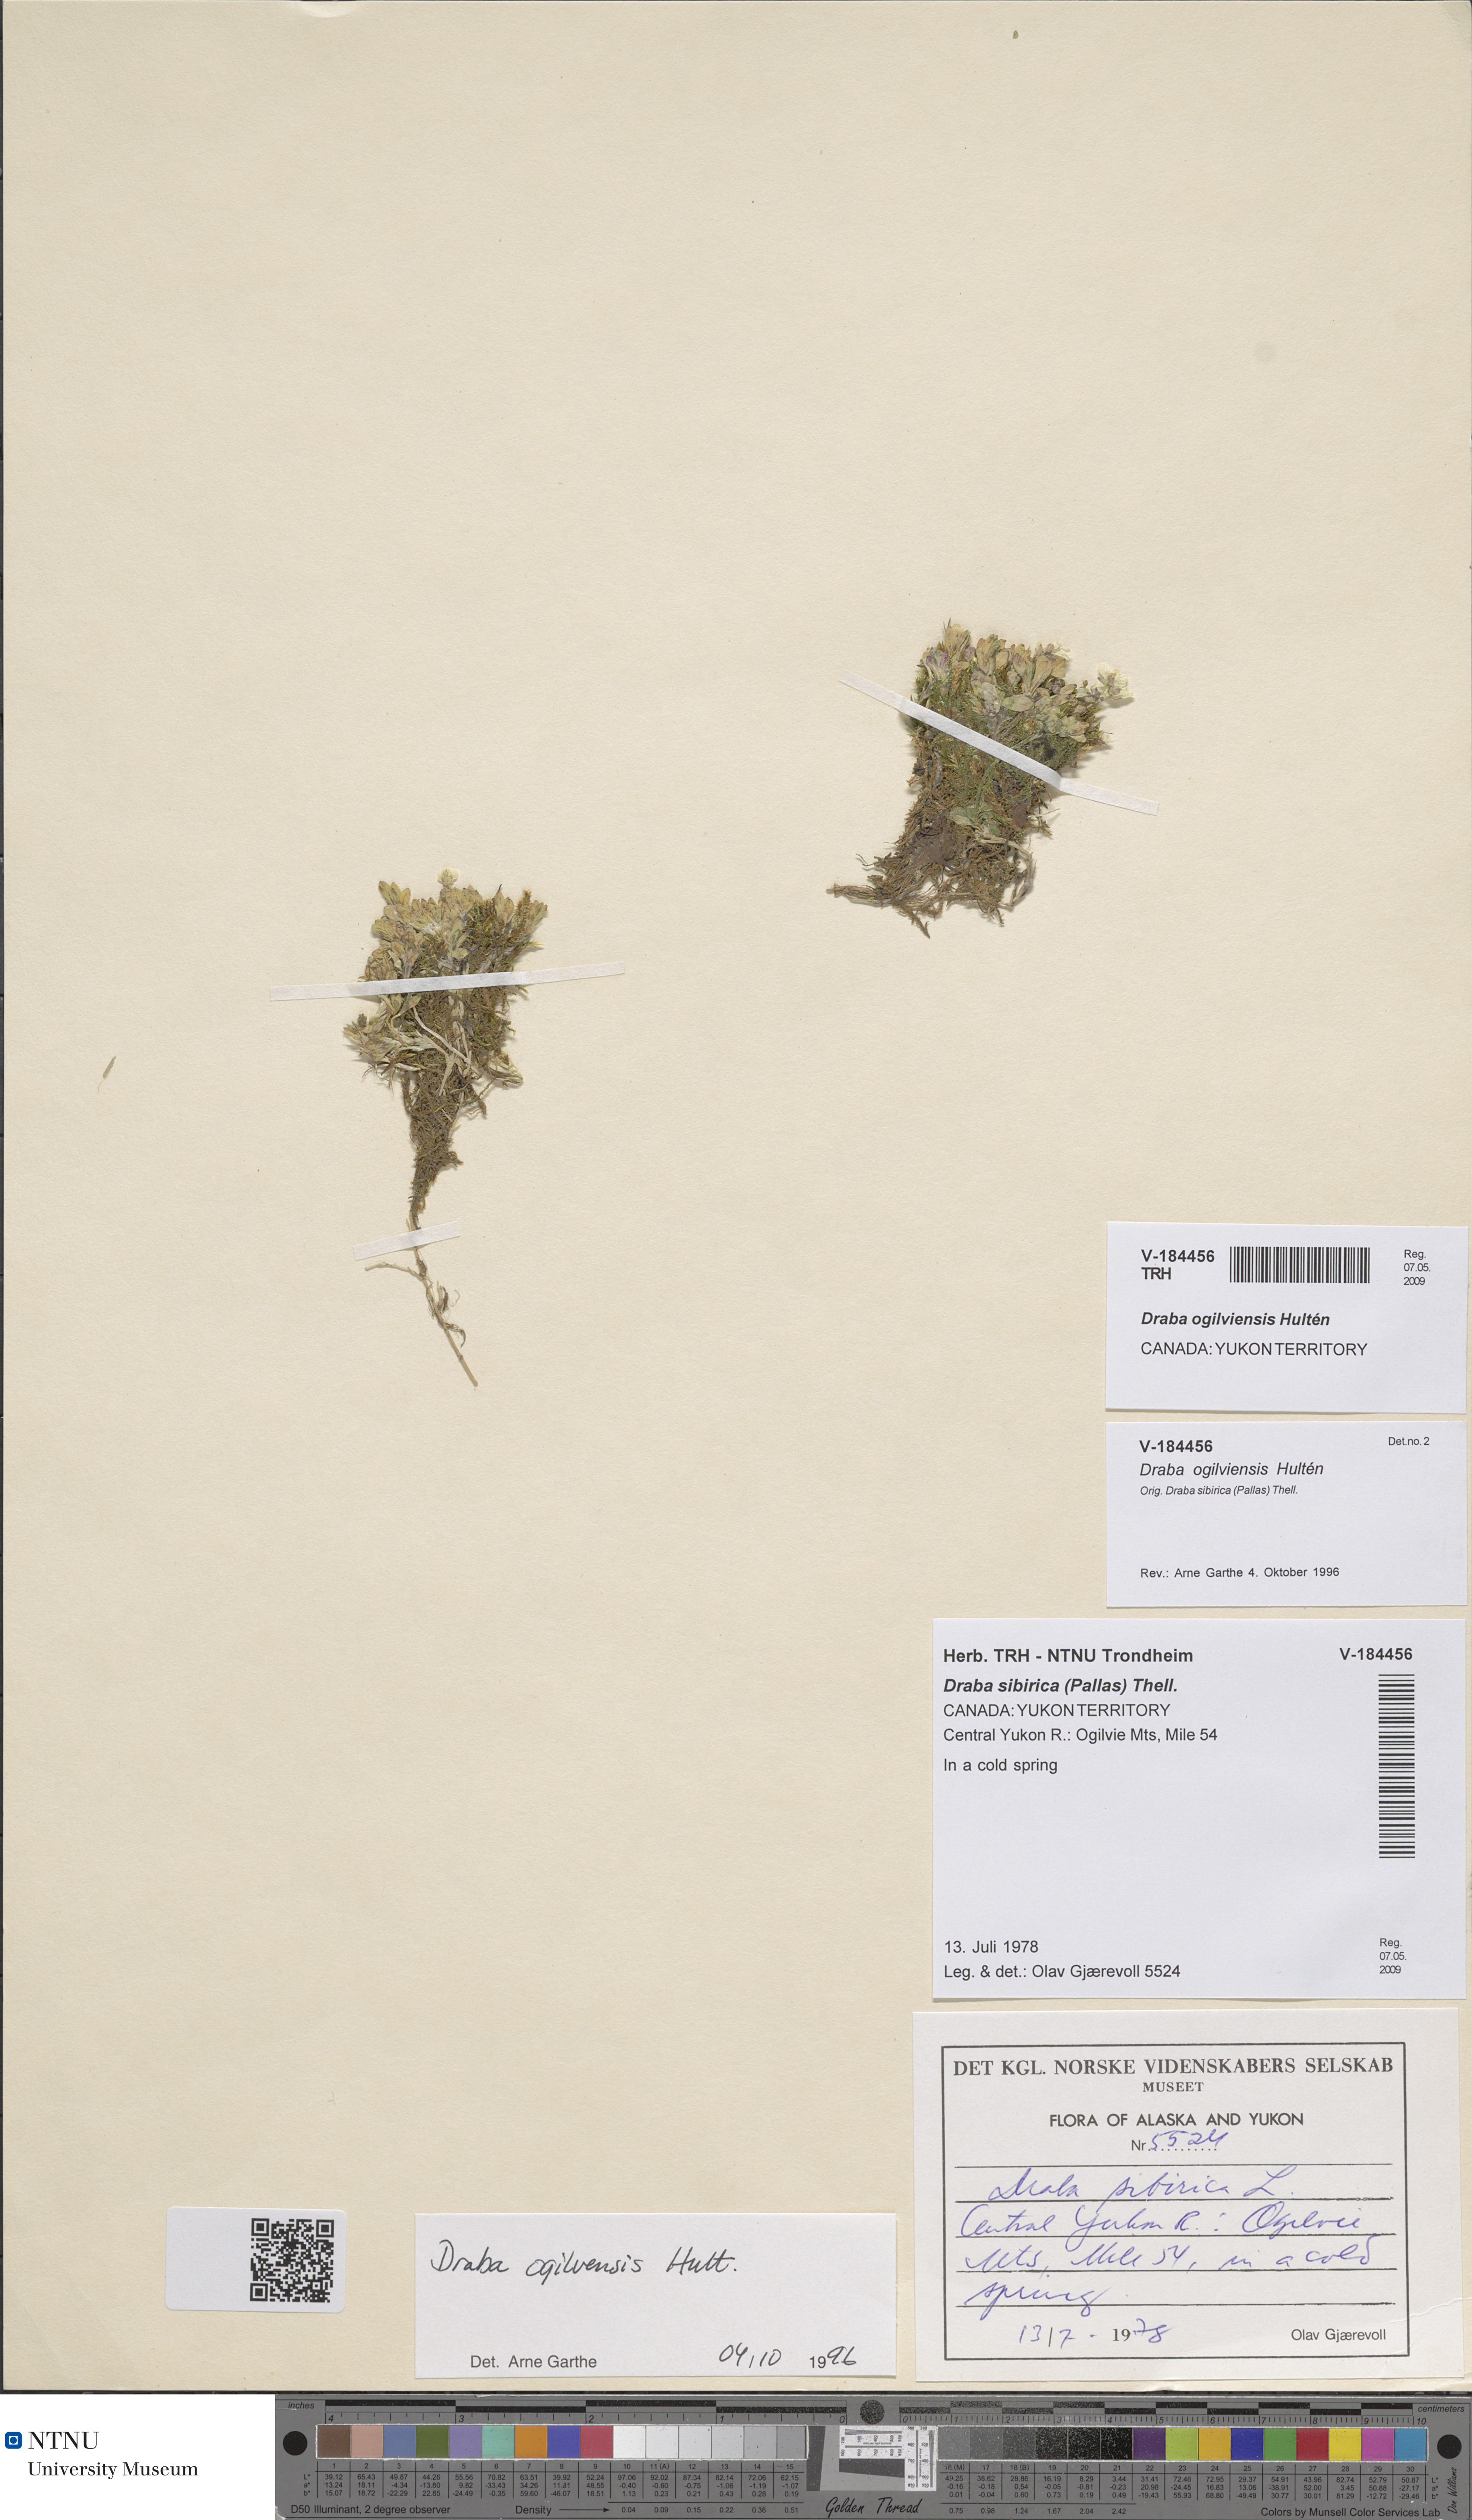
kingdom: Plantae
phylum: Tracheophyta
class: Magnoliopsida
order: Brassicales
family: Brassicaceae
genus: Draba
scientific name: Draba ogilviensis
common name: Ogilvie mountains draba
